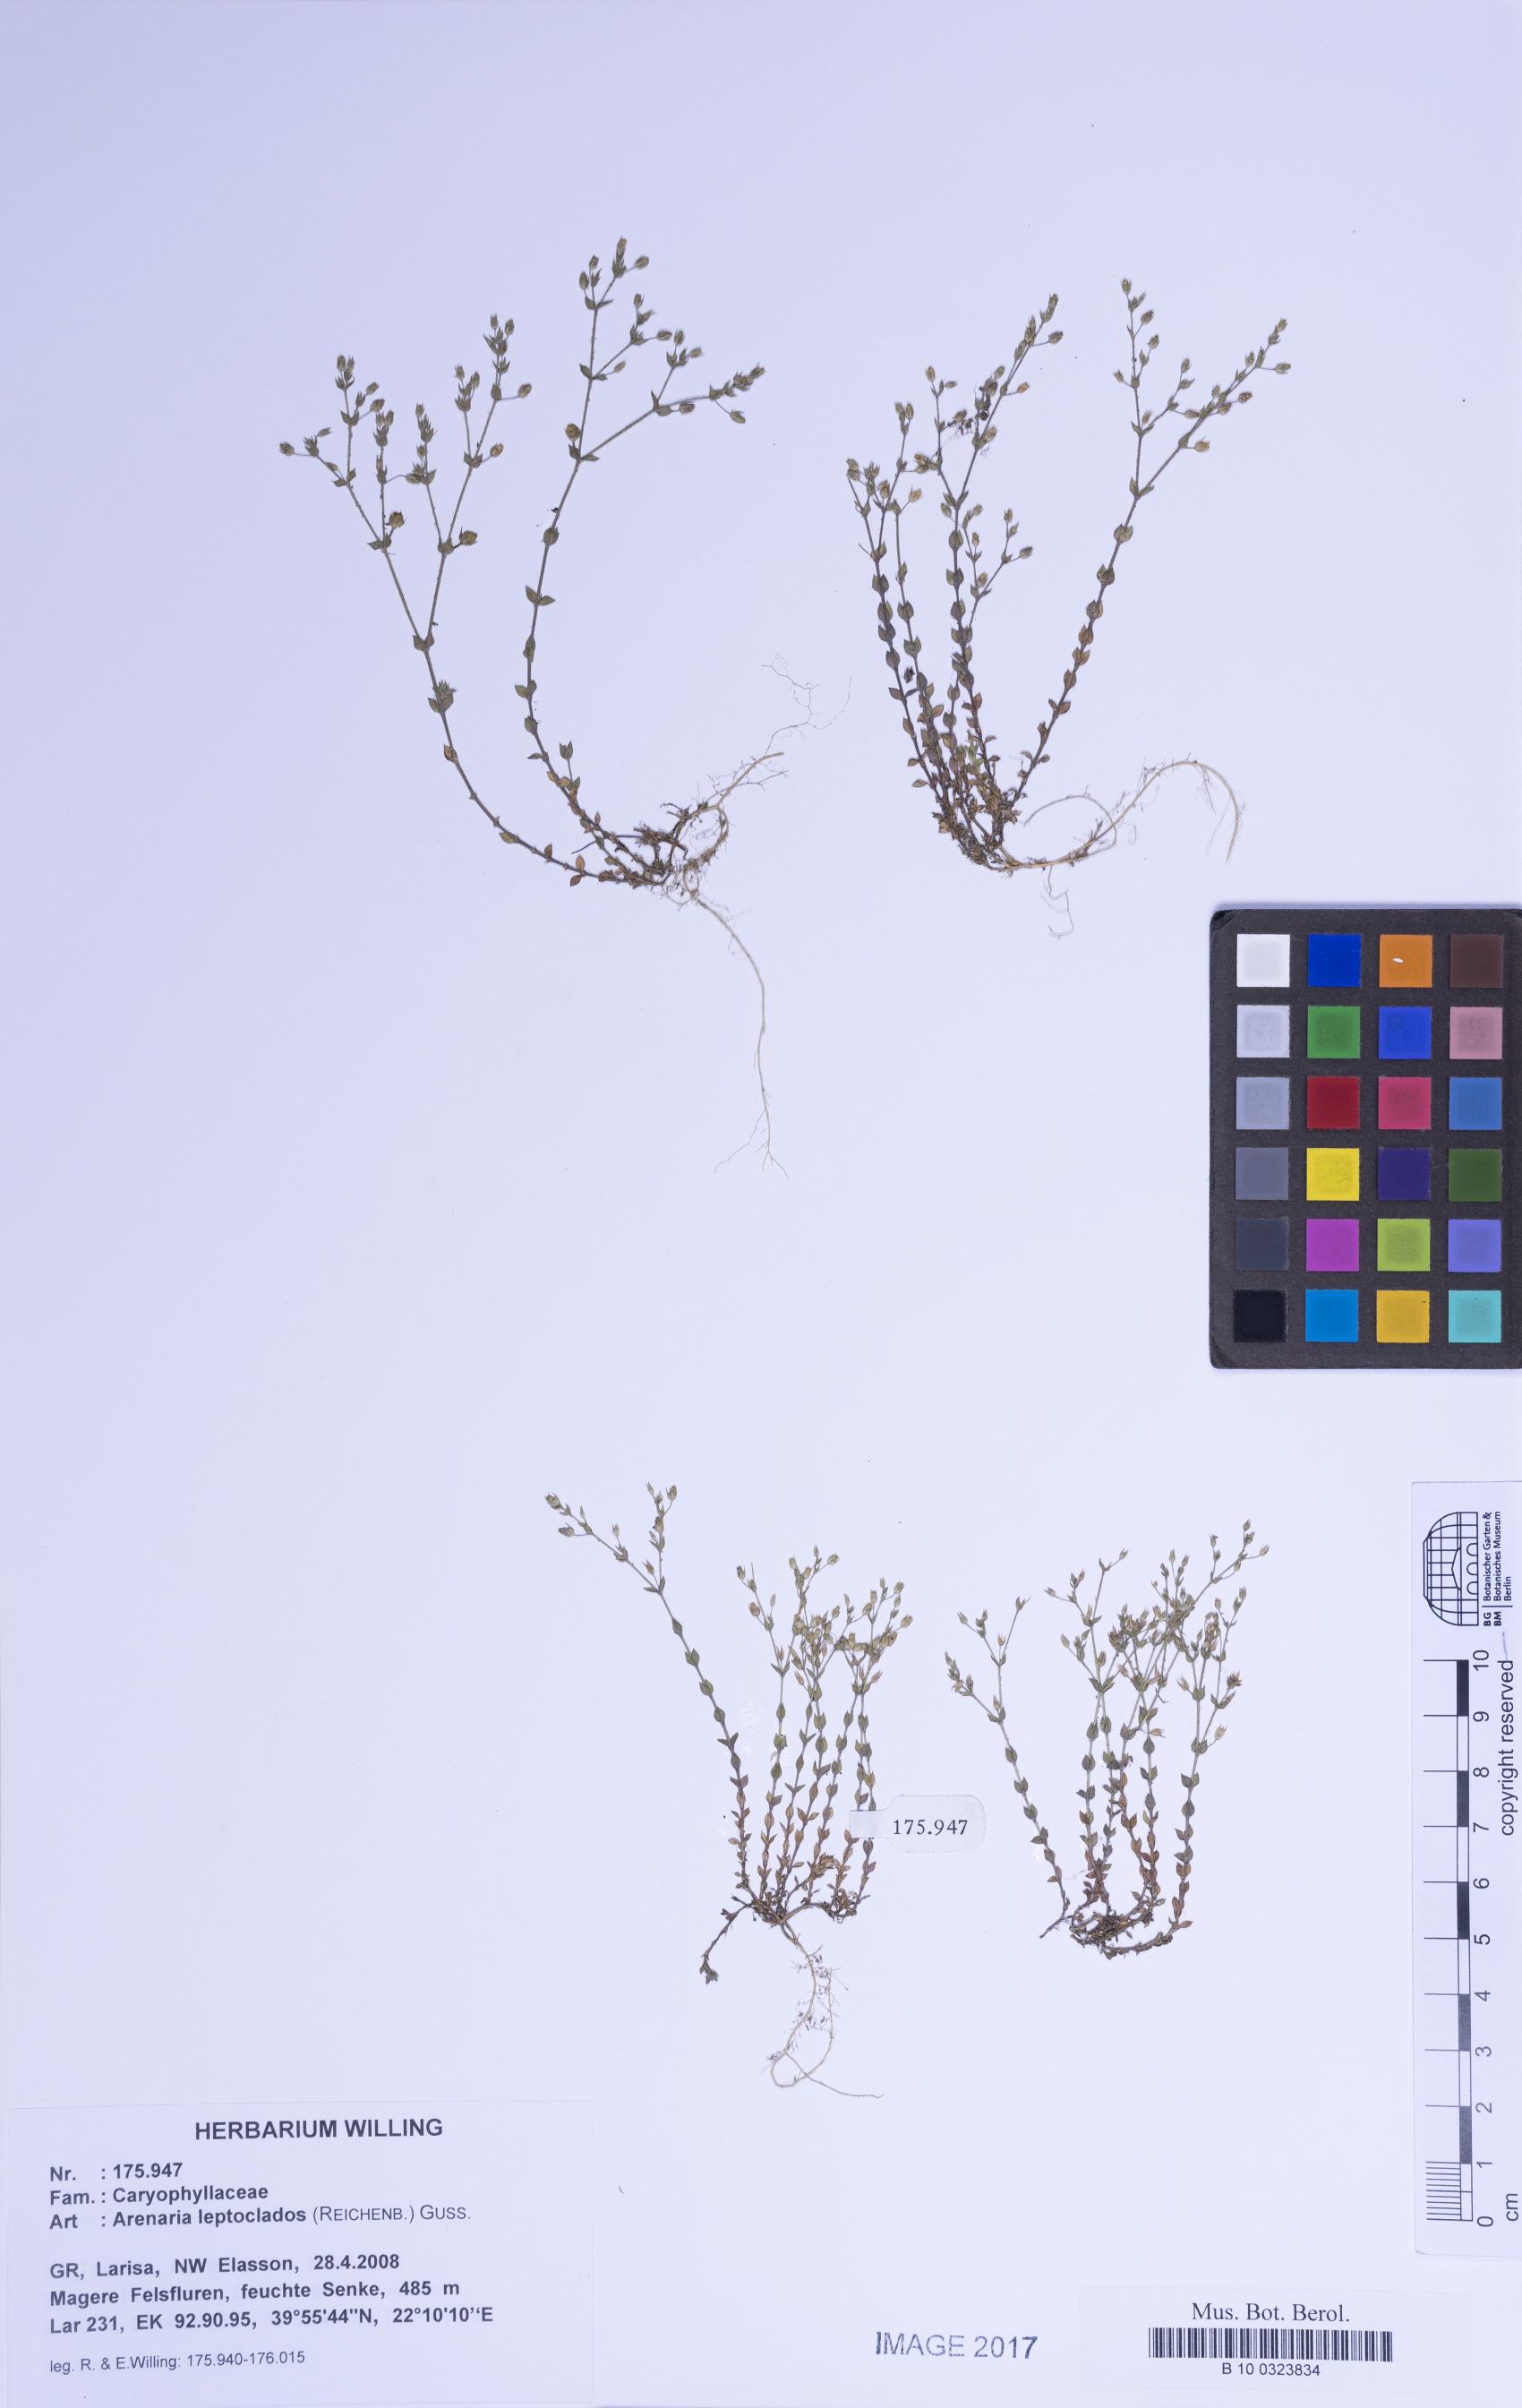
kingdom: Plantae
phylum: Tracheophyta
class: Magnoliopsida
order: Caryophyllales
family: Caryophyllaceae
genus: Arenaria
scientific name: Arenaria leptoclados
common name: Thyme-leaved sandwort
